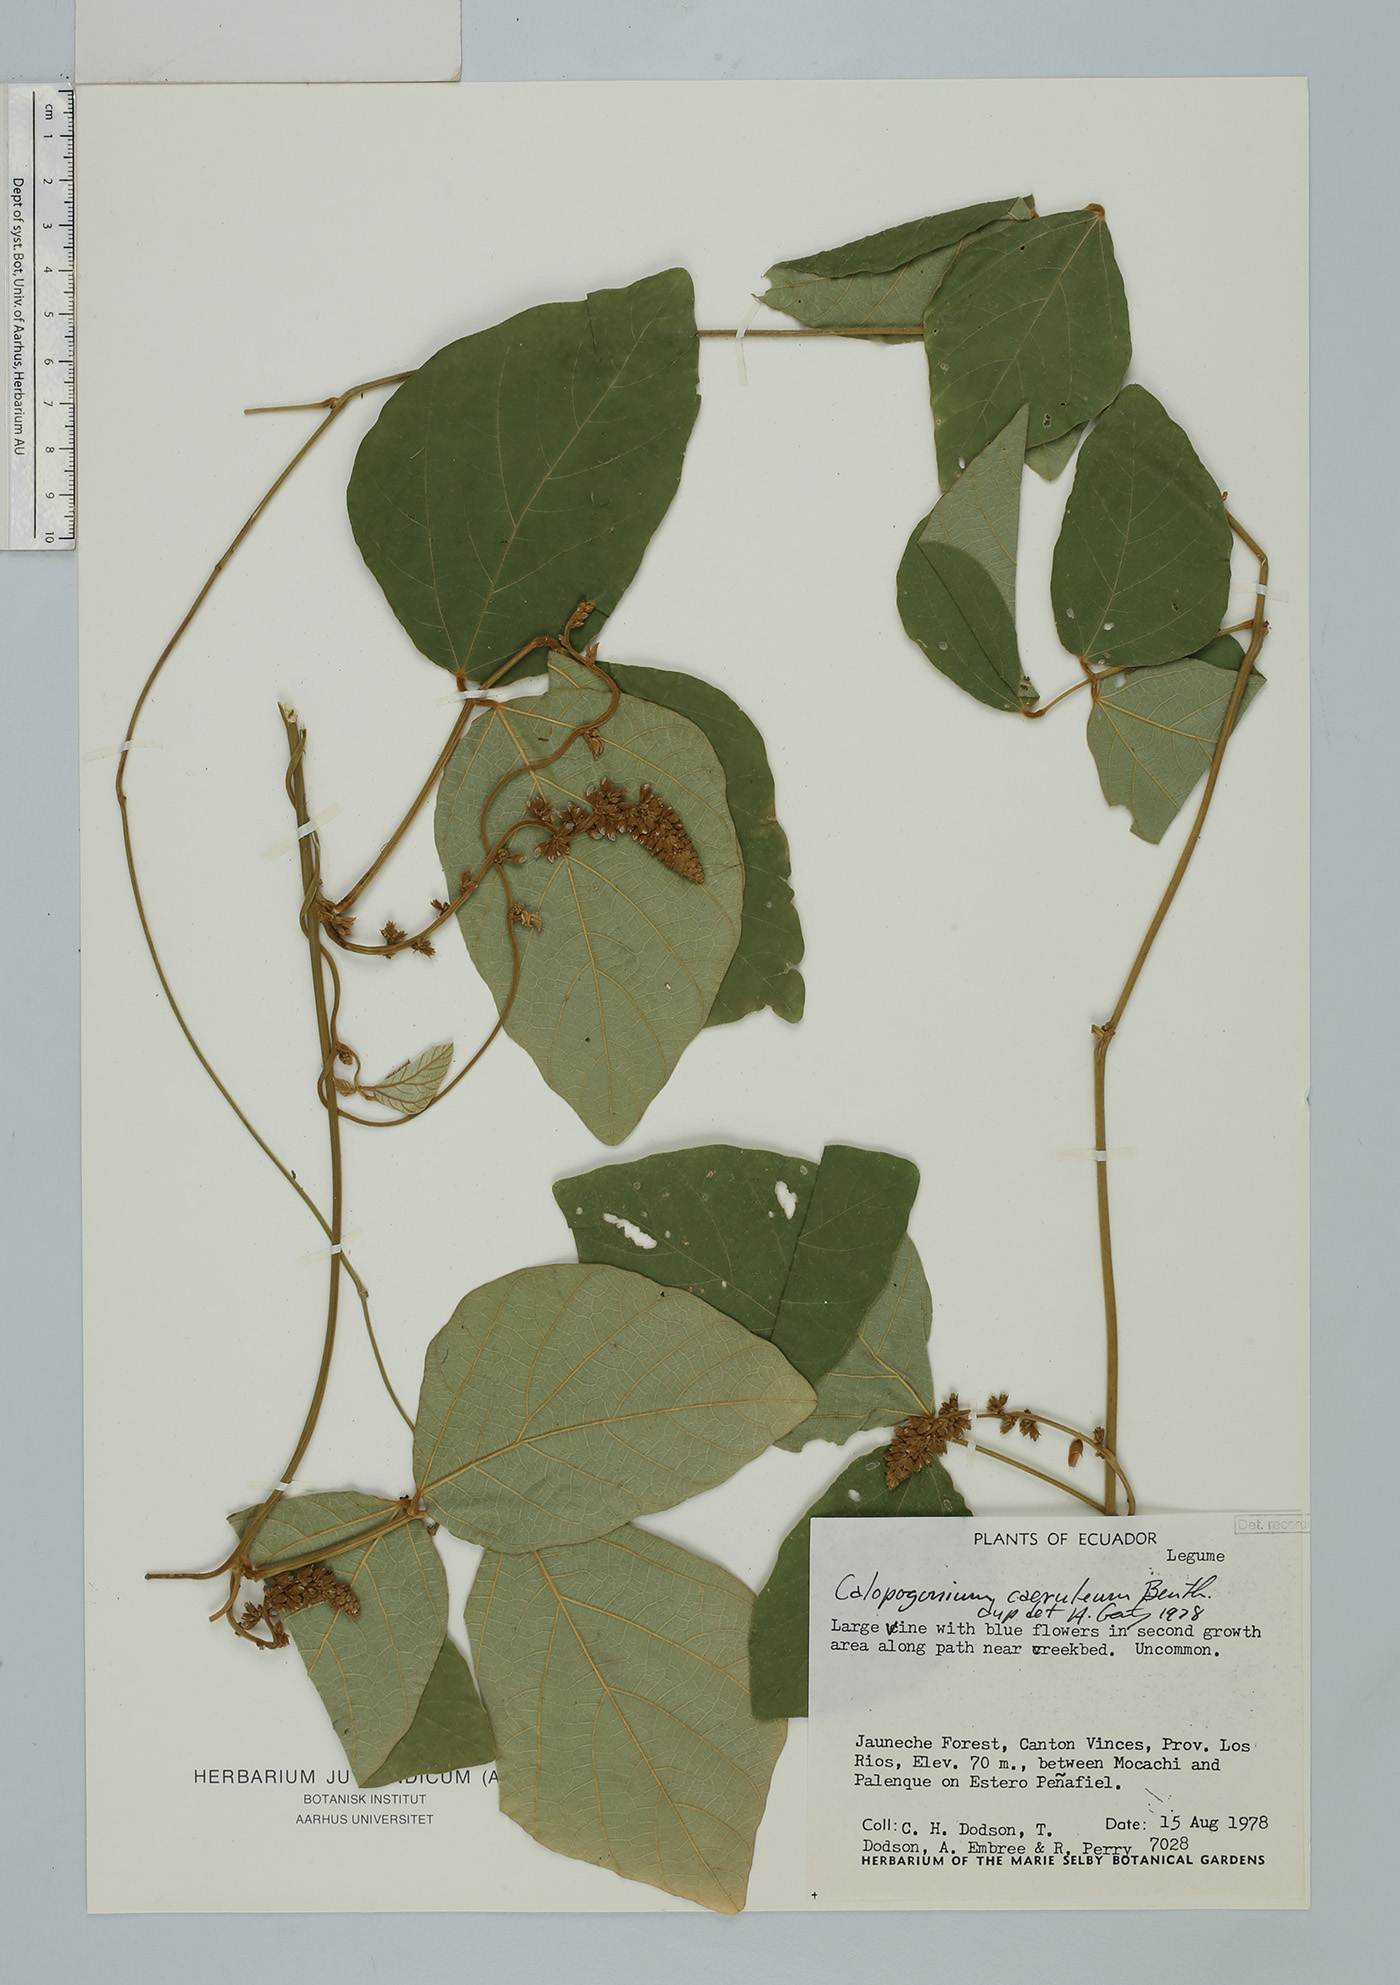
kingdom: Plantae
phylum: Tracheophyta
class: Magnoliopsida
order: Fabales
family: Fabaceae
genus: Calopogonium
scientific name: Calopogonium caeruleum
